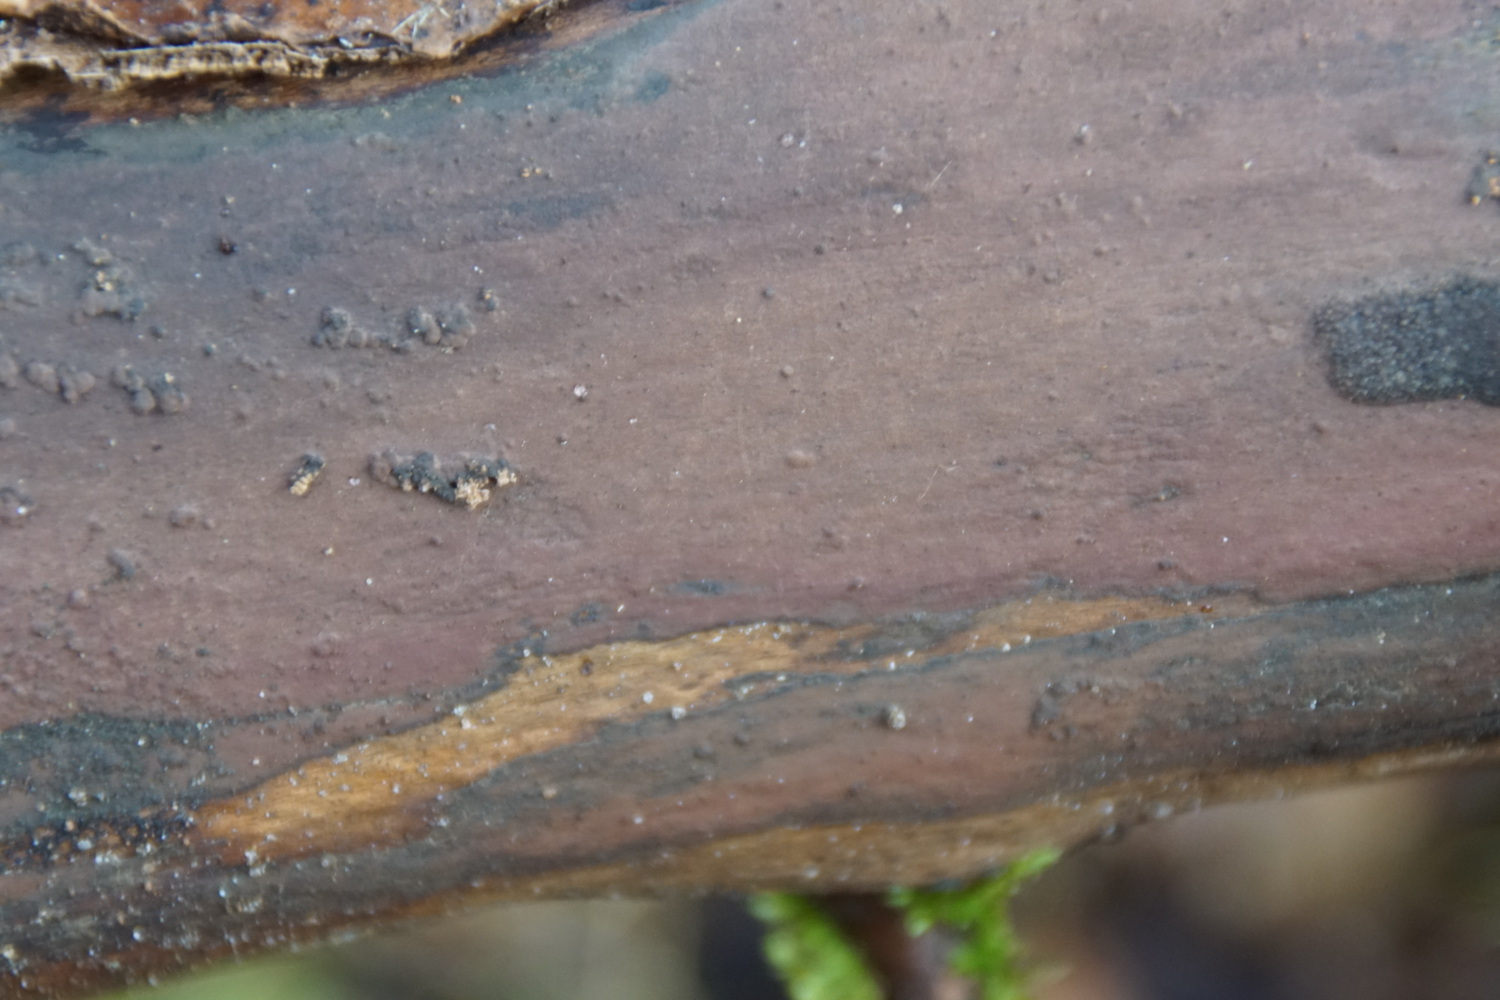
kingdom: Fungi
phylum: Ascomycota
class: Sordariomycetes
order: Xylariales
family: Hypoxylaceae
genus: Hypoxylon
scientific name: Hypoxylon macrocarpum
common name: skorpe-kulbær
